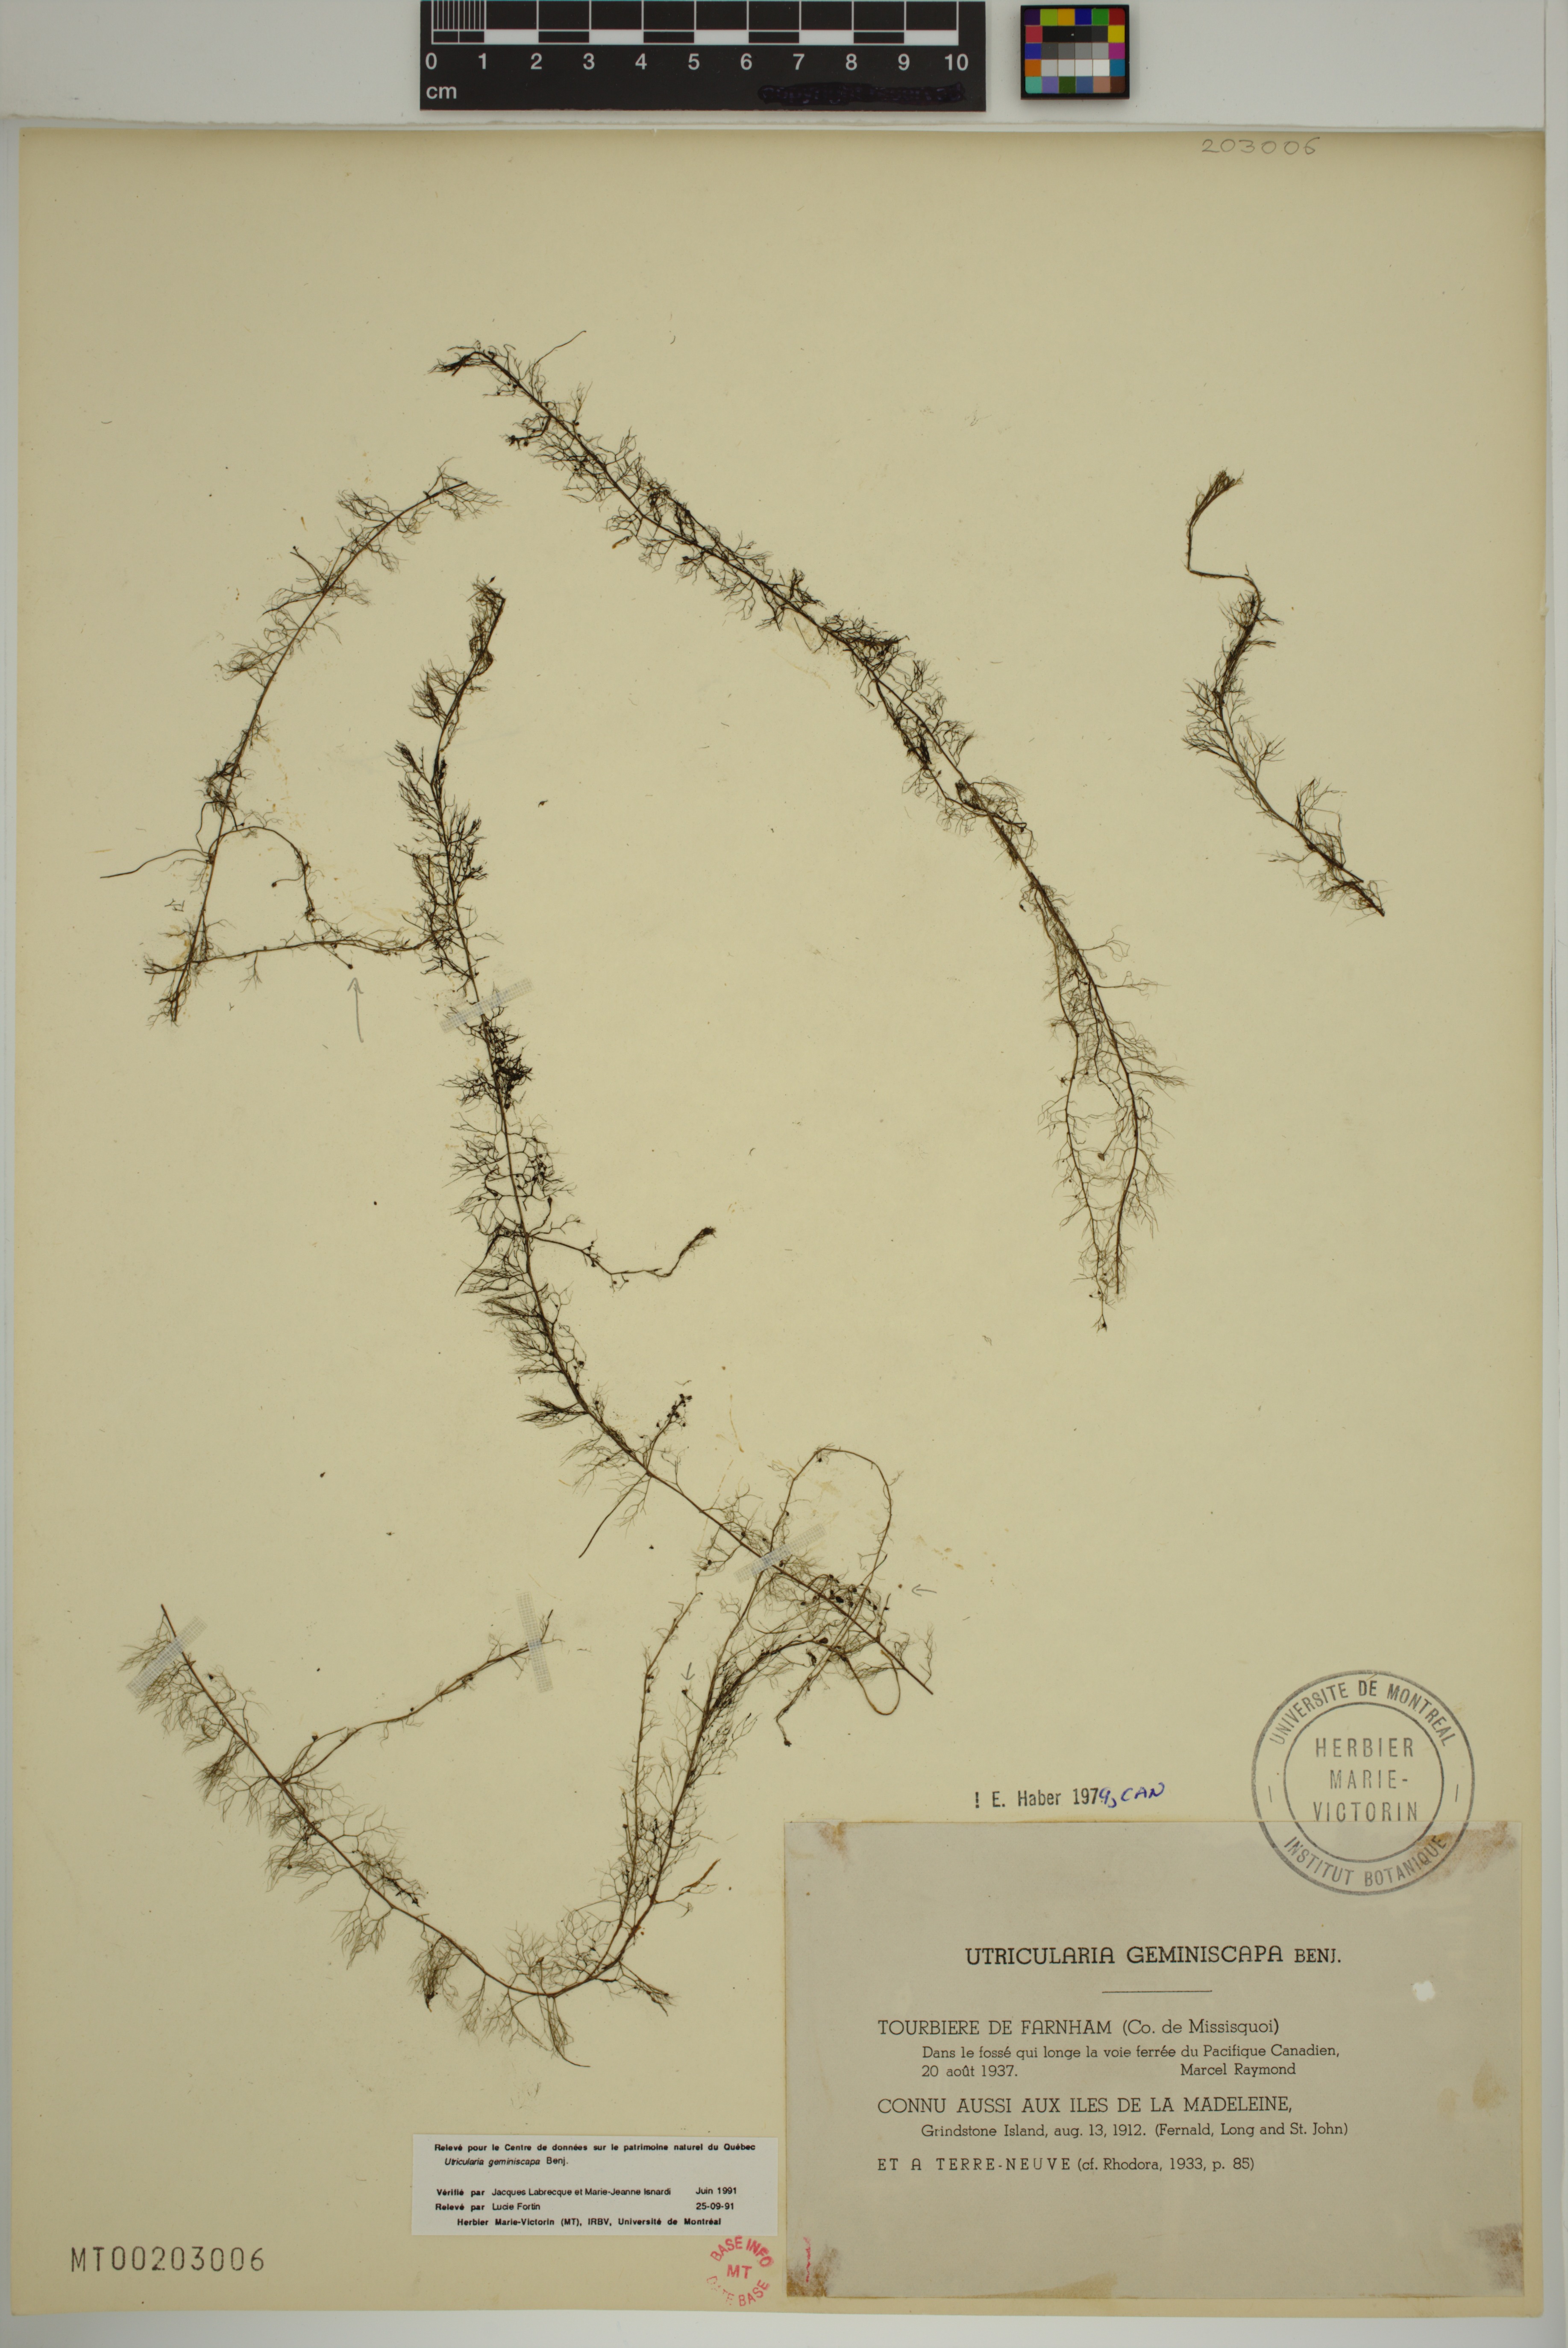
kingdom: Plantae
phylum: Tracheophyta
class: Magnoliopsida
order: Lamiales
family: Lentibulariaceae
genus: Utricularia
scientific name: Utricularia geminiscapa
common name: Hidden-fruit bladderwort
